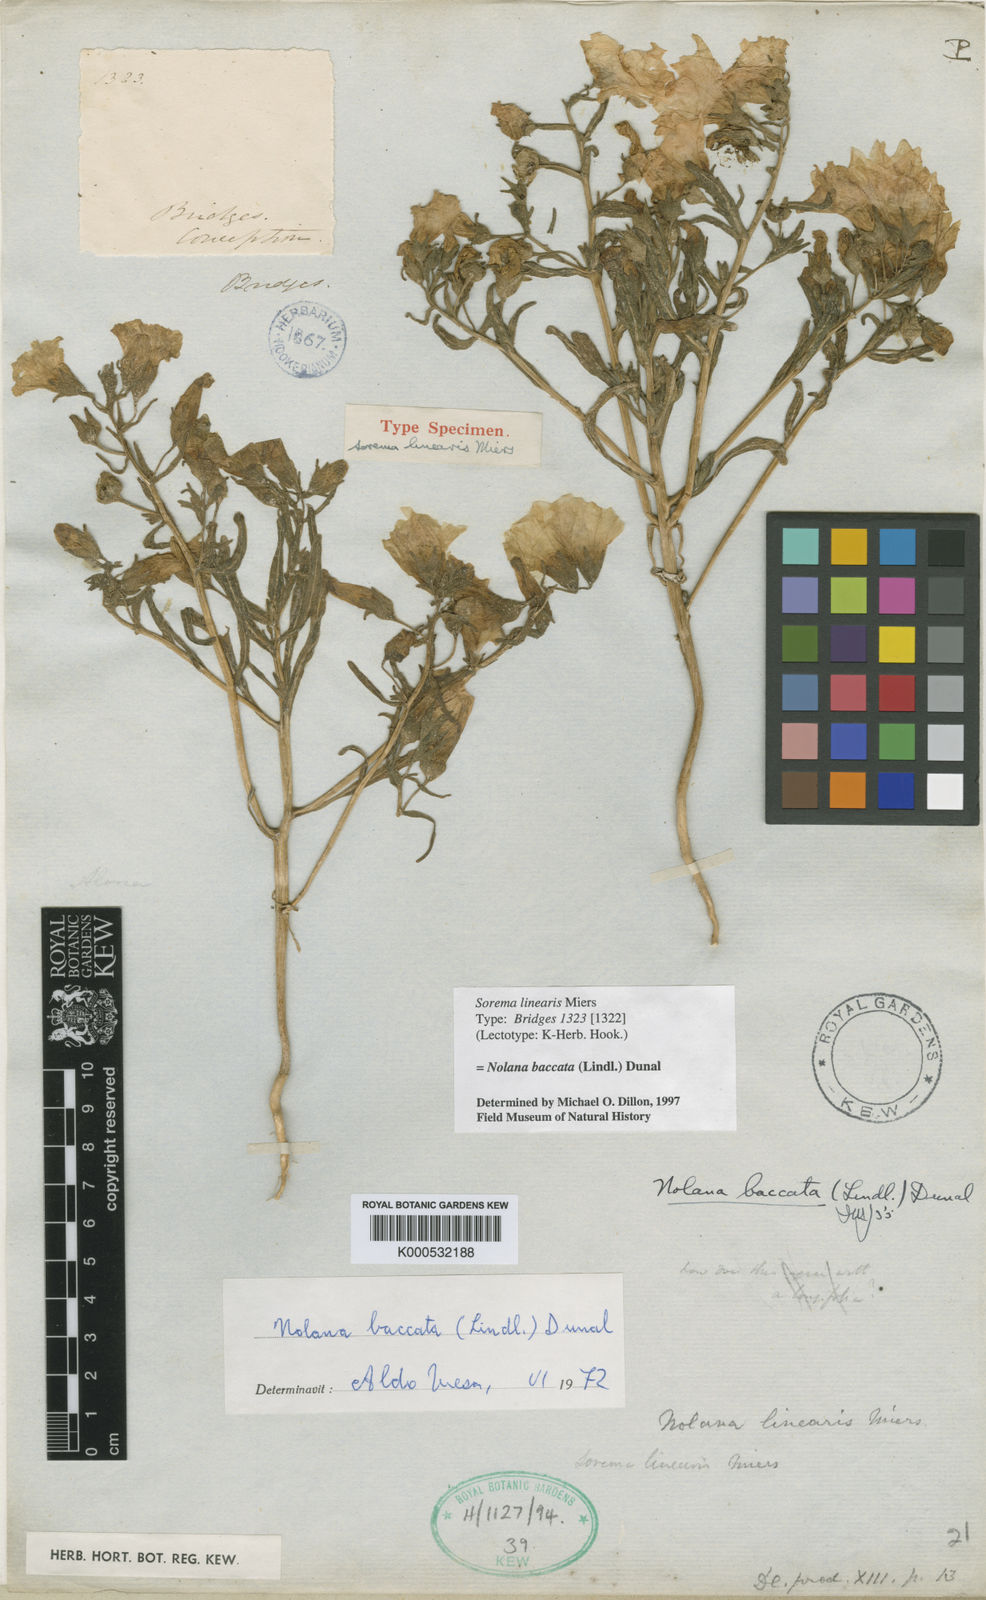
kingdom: Plantae
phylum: Tracheophyta
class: Magnoliopsida
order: Solanales
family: Solanaceae
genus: Nolana
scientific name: Nolana paradoxa
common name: Chilean-bellflower
